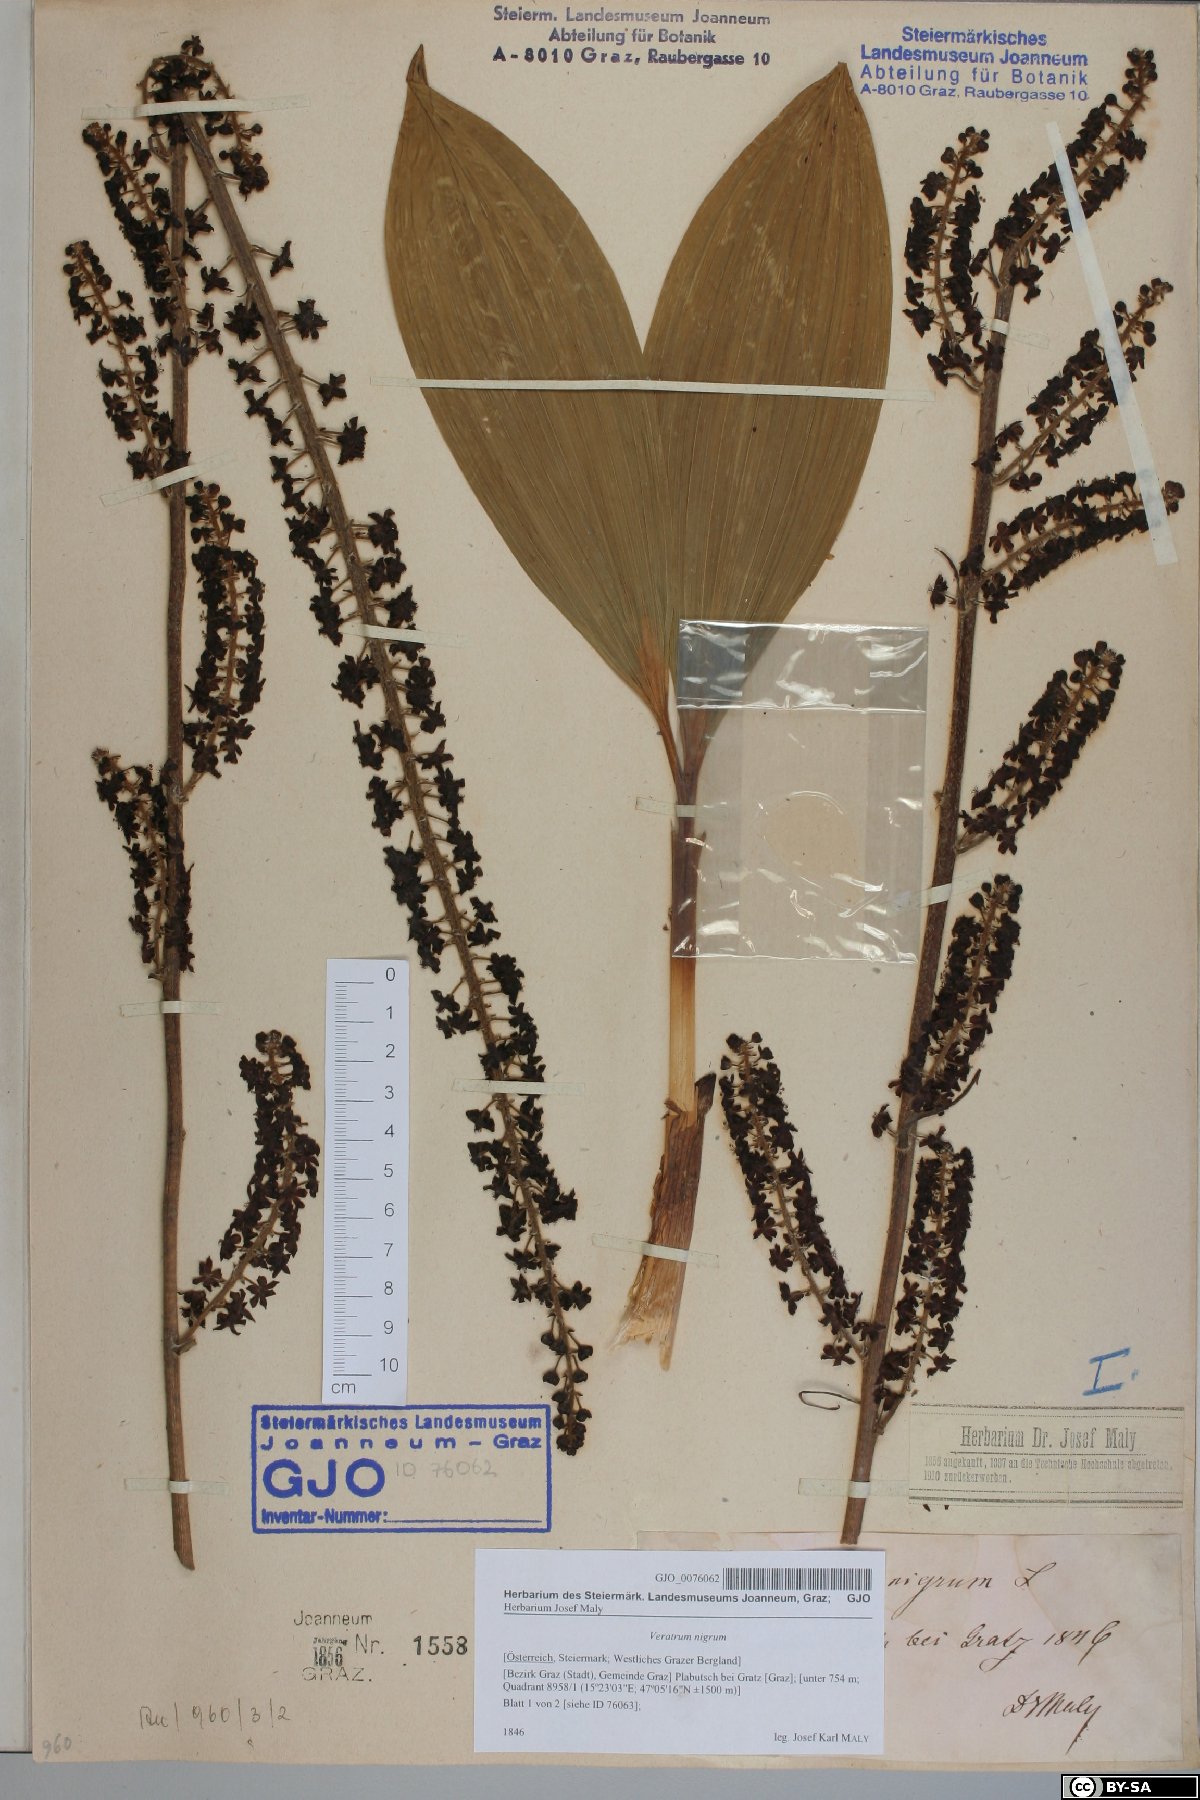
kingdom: Plantae
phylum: Tracheophyta
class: Liliopsida
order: Liliales
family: Melanthiaceae
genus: Veratrum
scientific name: Veratrum nigrum
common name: Black veratrum
